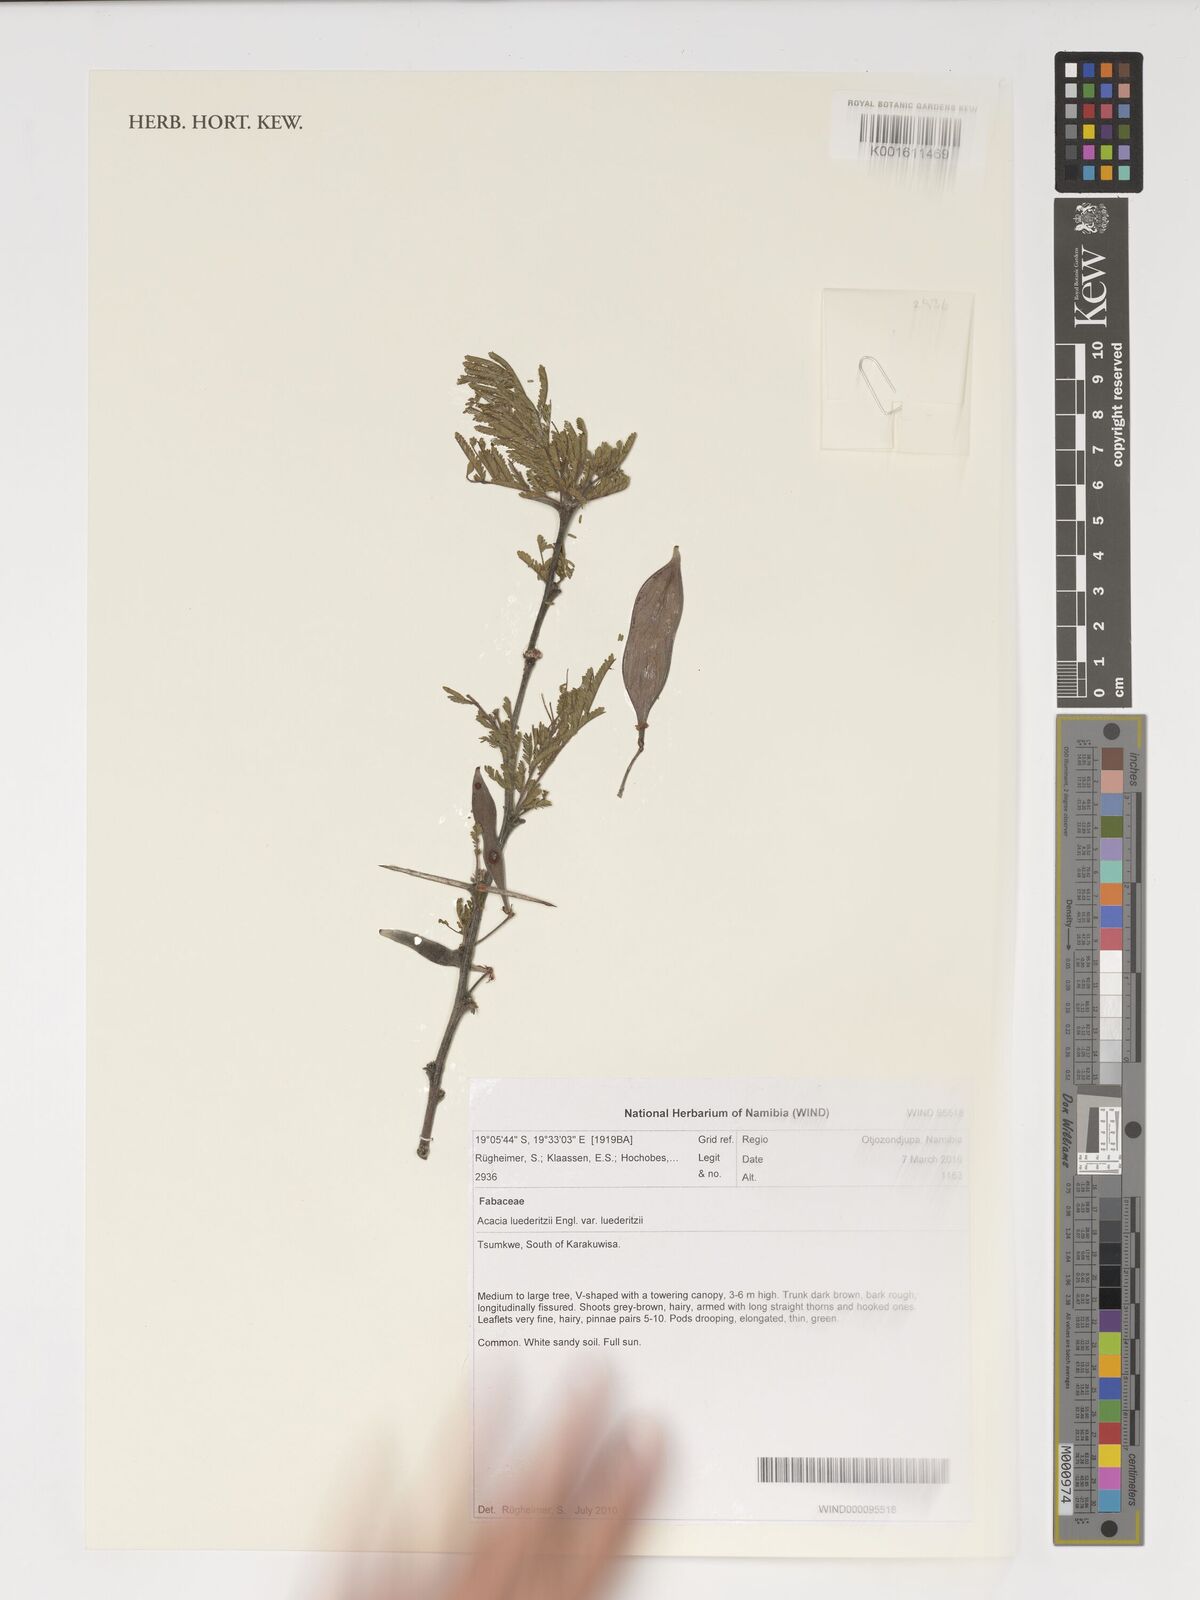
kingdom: Plantae
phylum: Tracheophyta
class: Magnoliopsida
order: Fabales
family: Fabaceae
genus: Vachellia
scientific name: Vachellia
